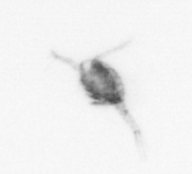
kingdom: Animalia
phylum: Arthropoda
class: Copepoda
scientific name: Copepoda
